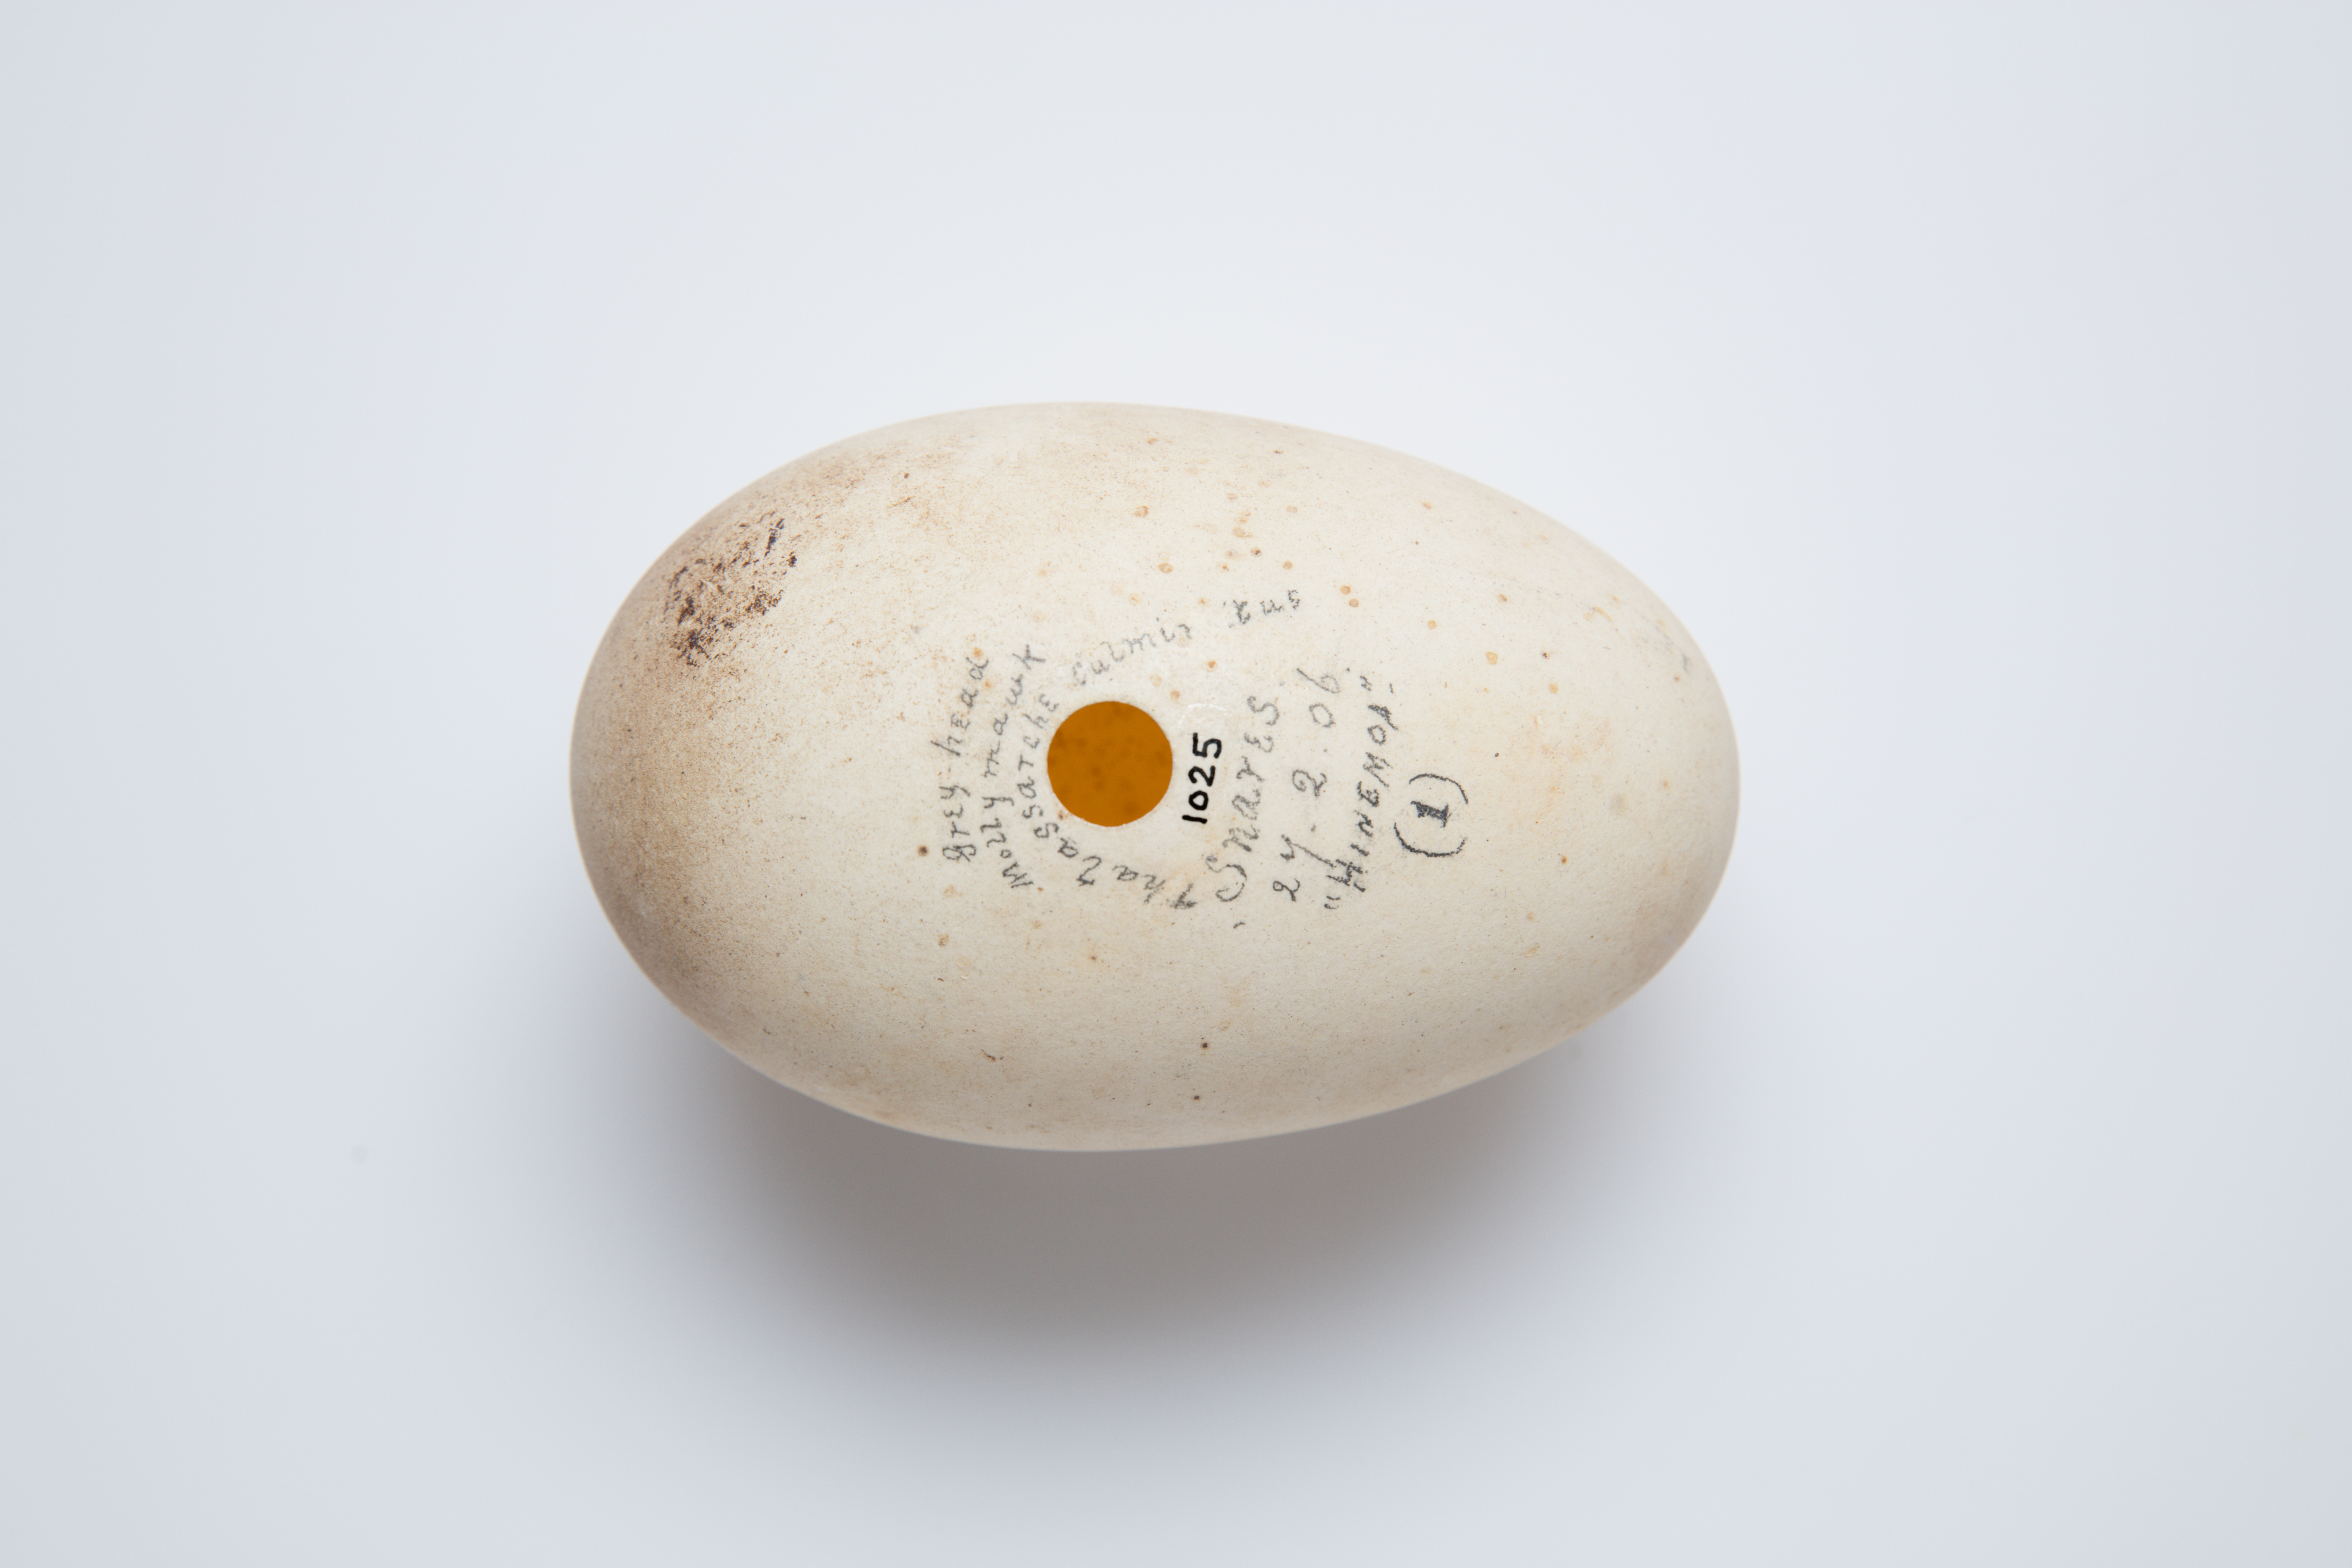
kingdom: Animalia
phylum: Chordata
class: Aves
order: Procellariiformes
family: Diomedeidae
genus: Thalassarche
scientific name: Thalassarche bulleri
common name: Buller's albatross
